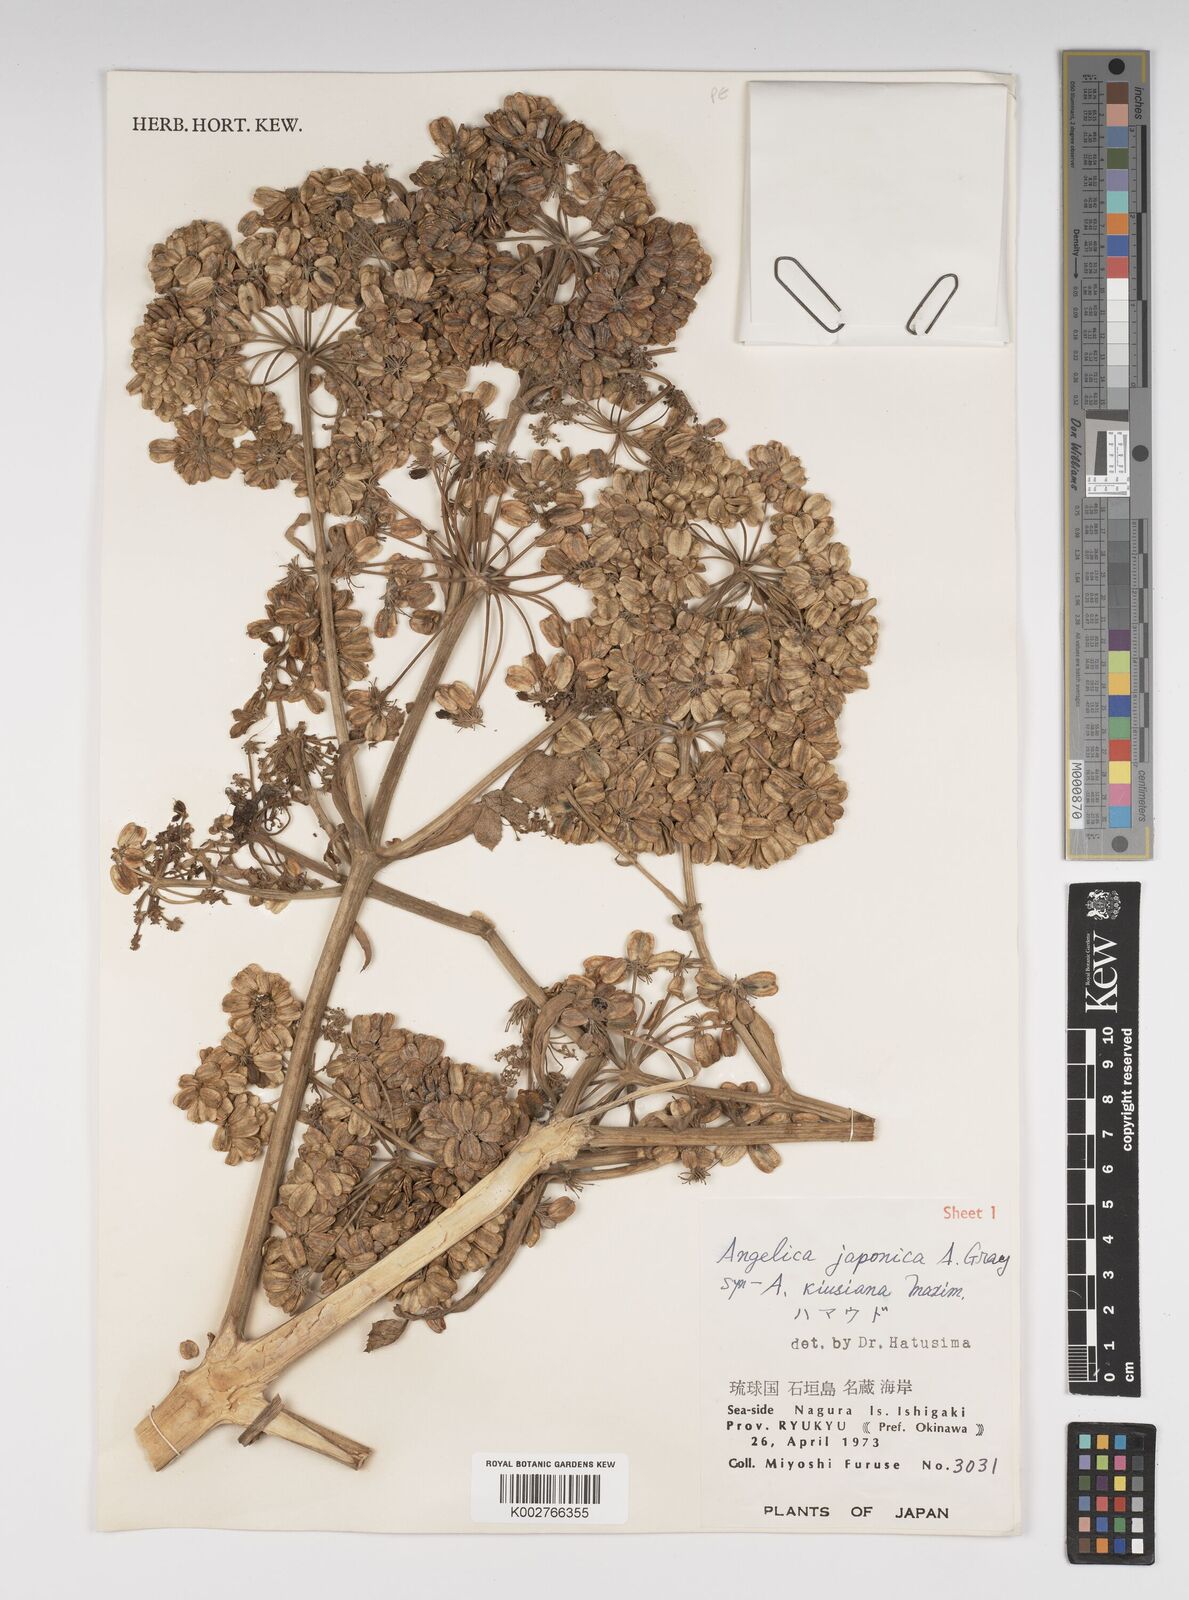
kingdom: Plantae
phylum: Tracheophyta
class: Magnoliopsida
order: Apiales
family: Apiaceae
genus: Angelica
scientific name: Angelica
